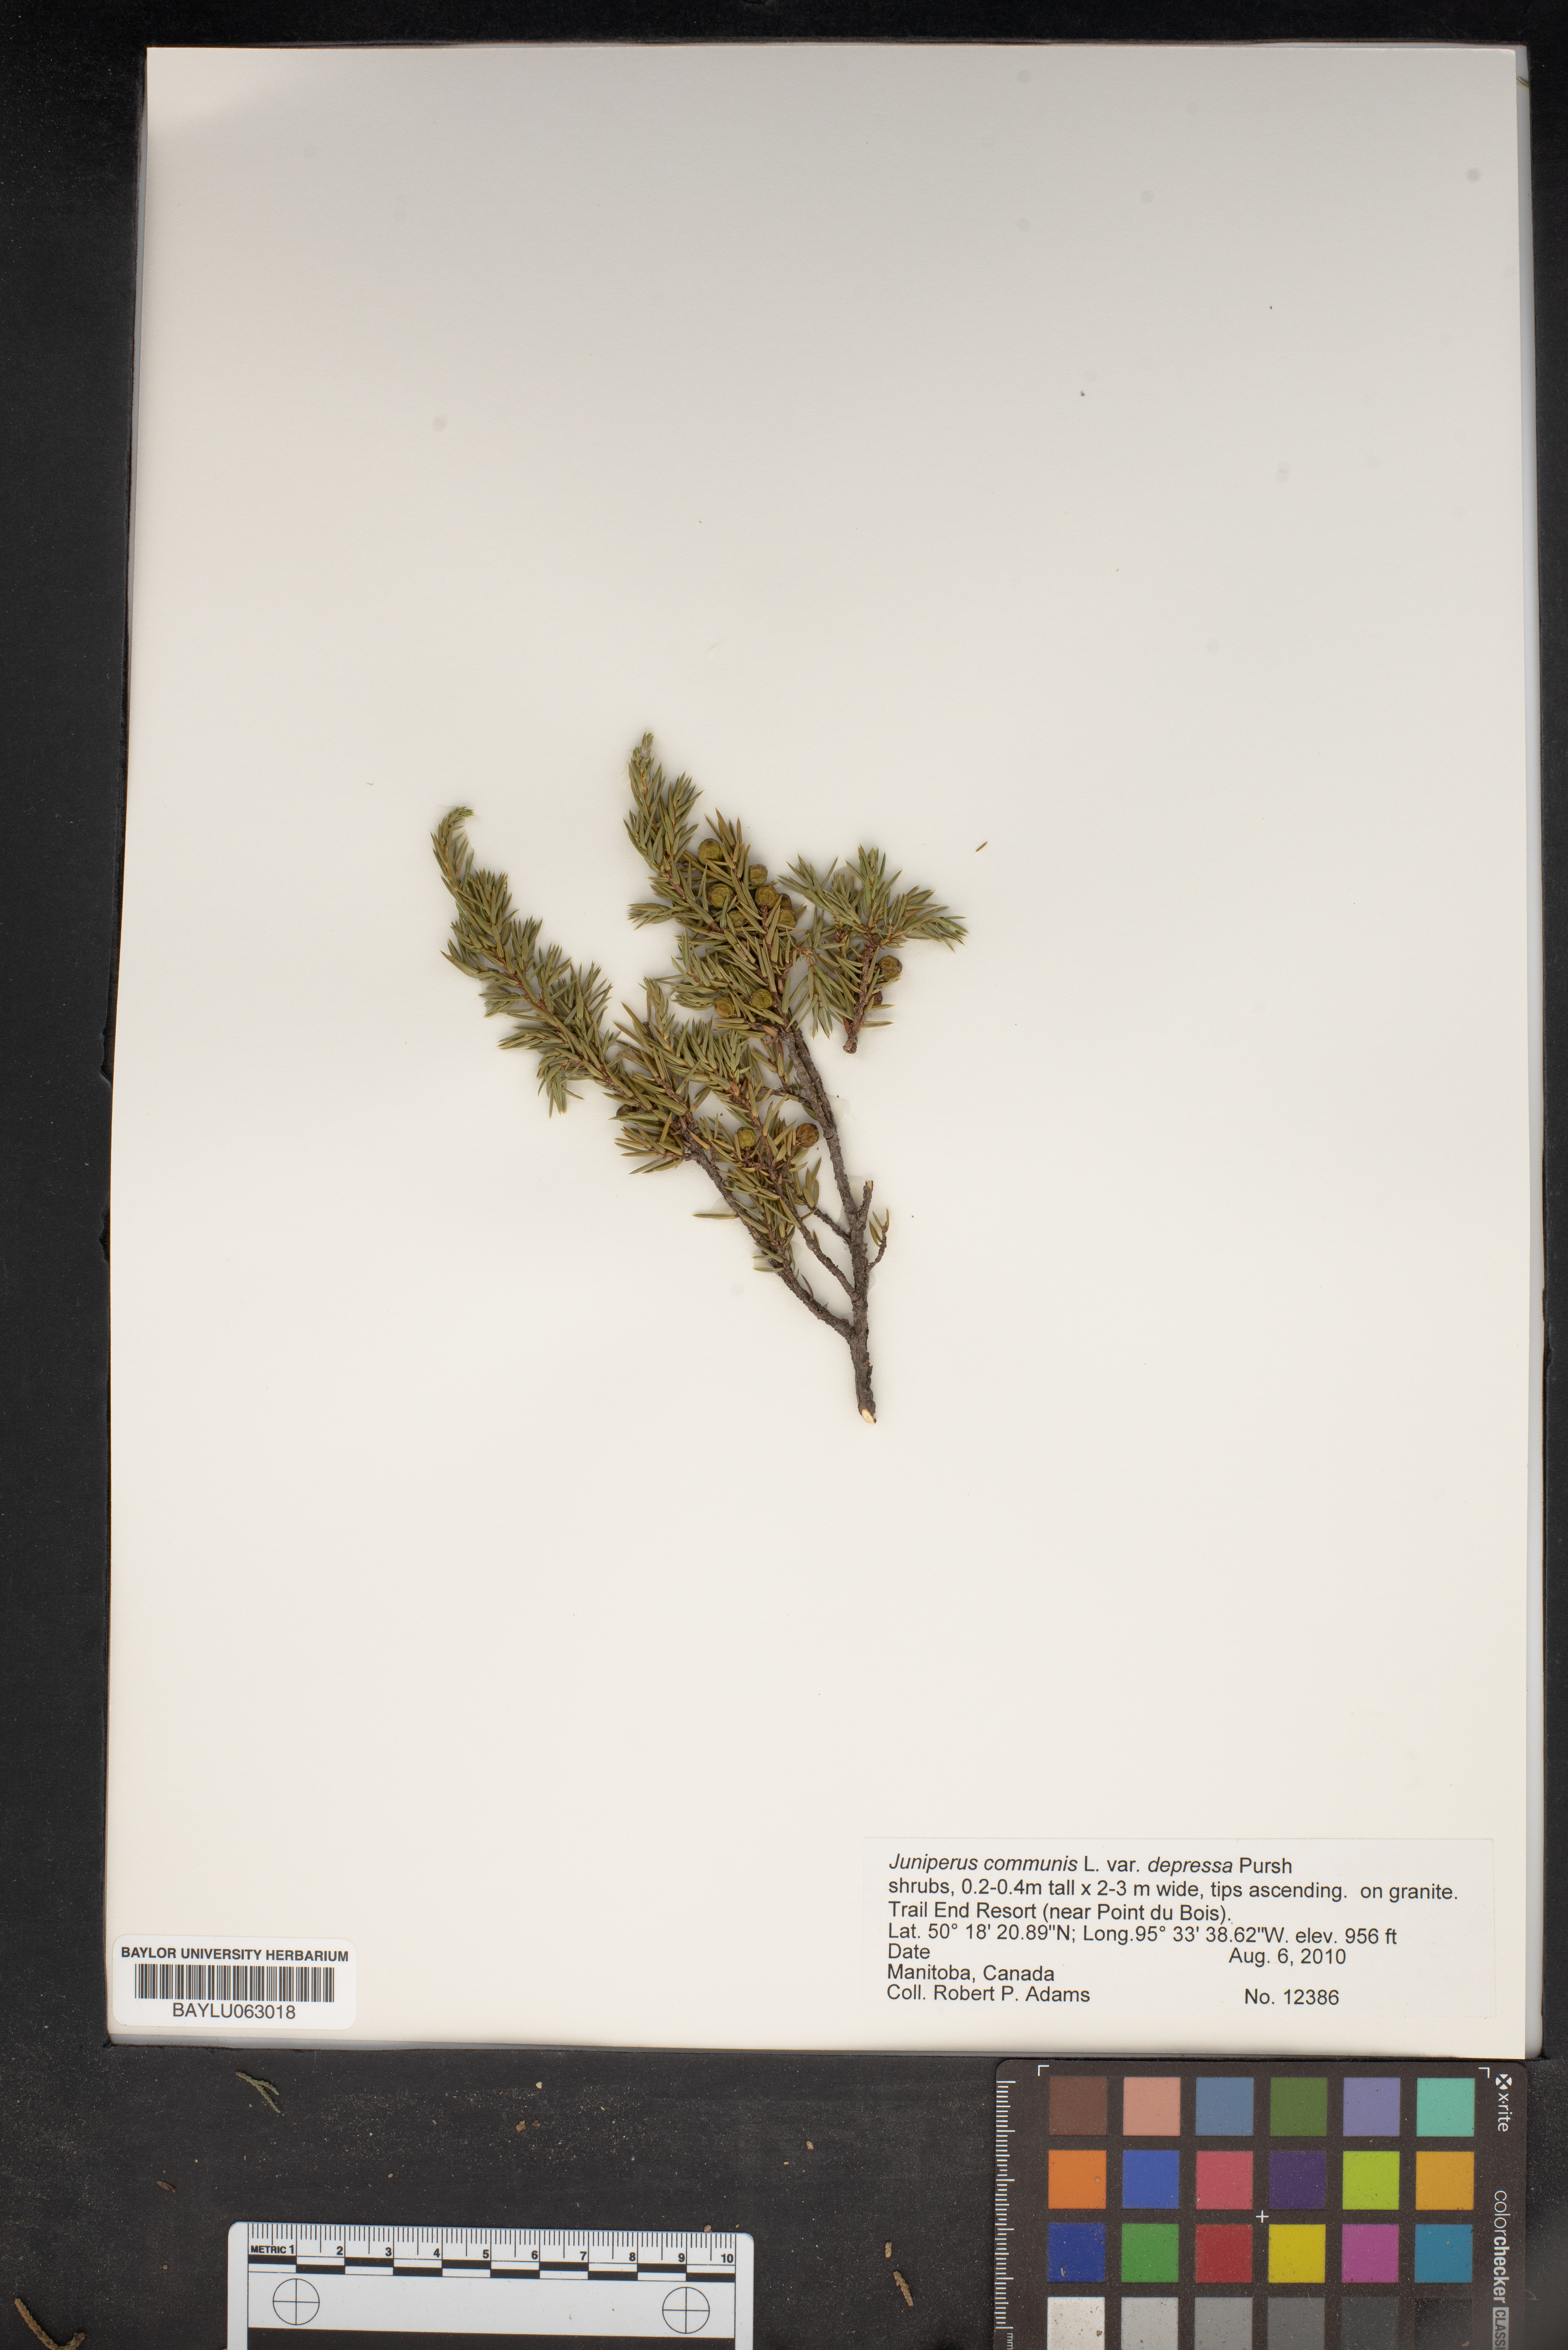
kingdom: Plantae
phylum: Tracheophyta
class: Pinopsida
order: Pinales
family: Cupressaceae
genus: Juniperus
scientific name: Juniperus communis
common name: Common juniper
